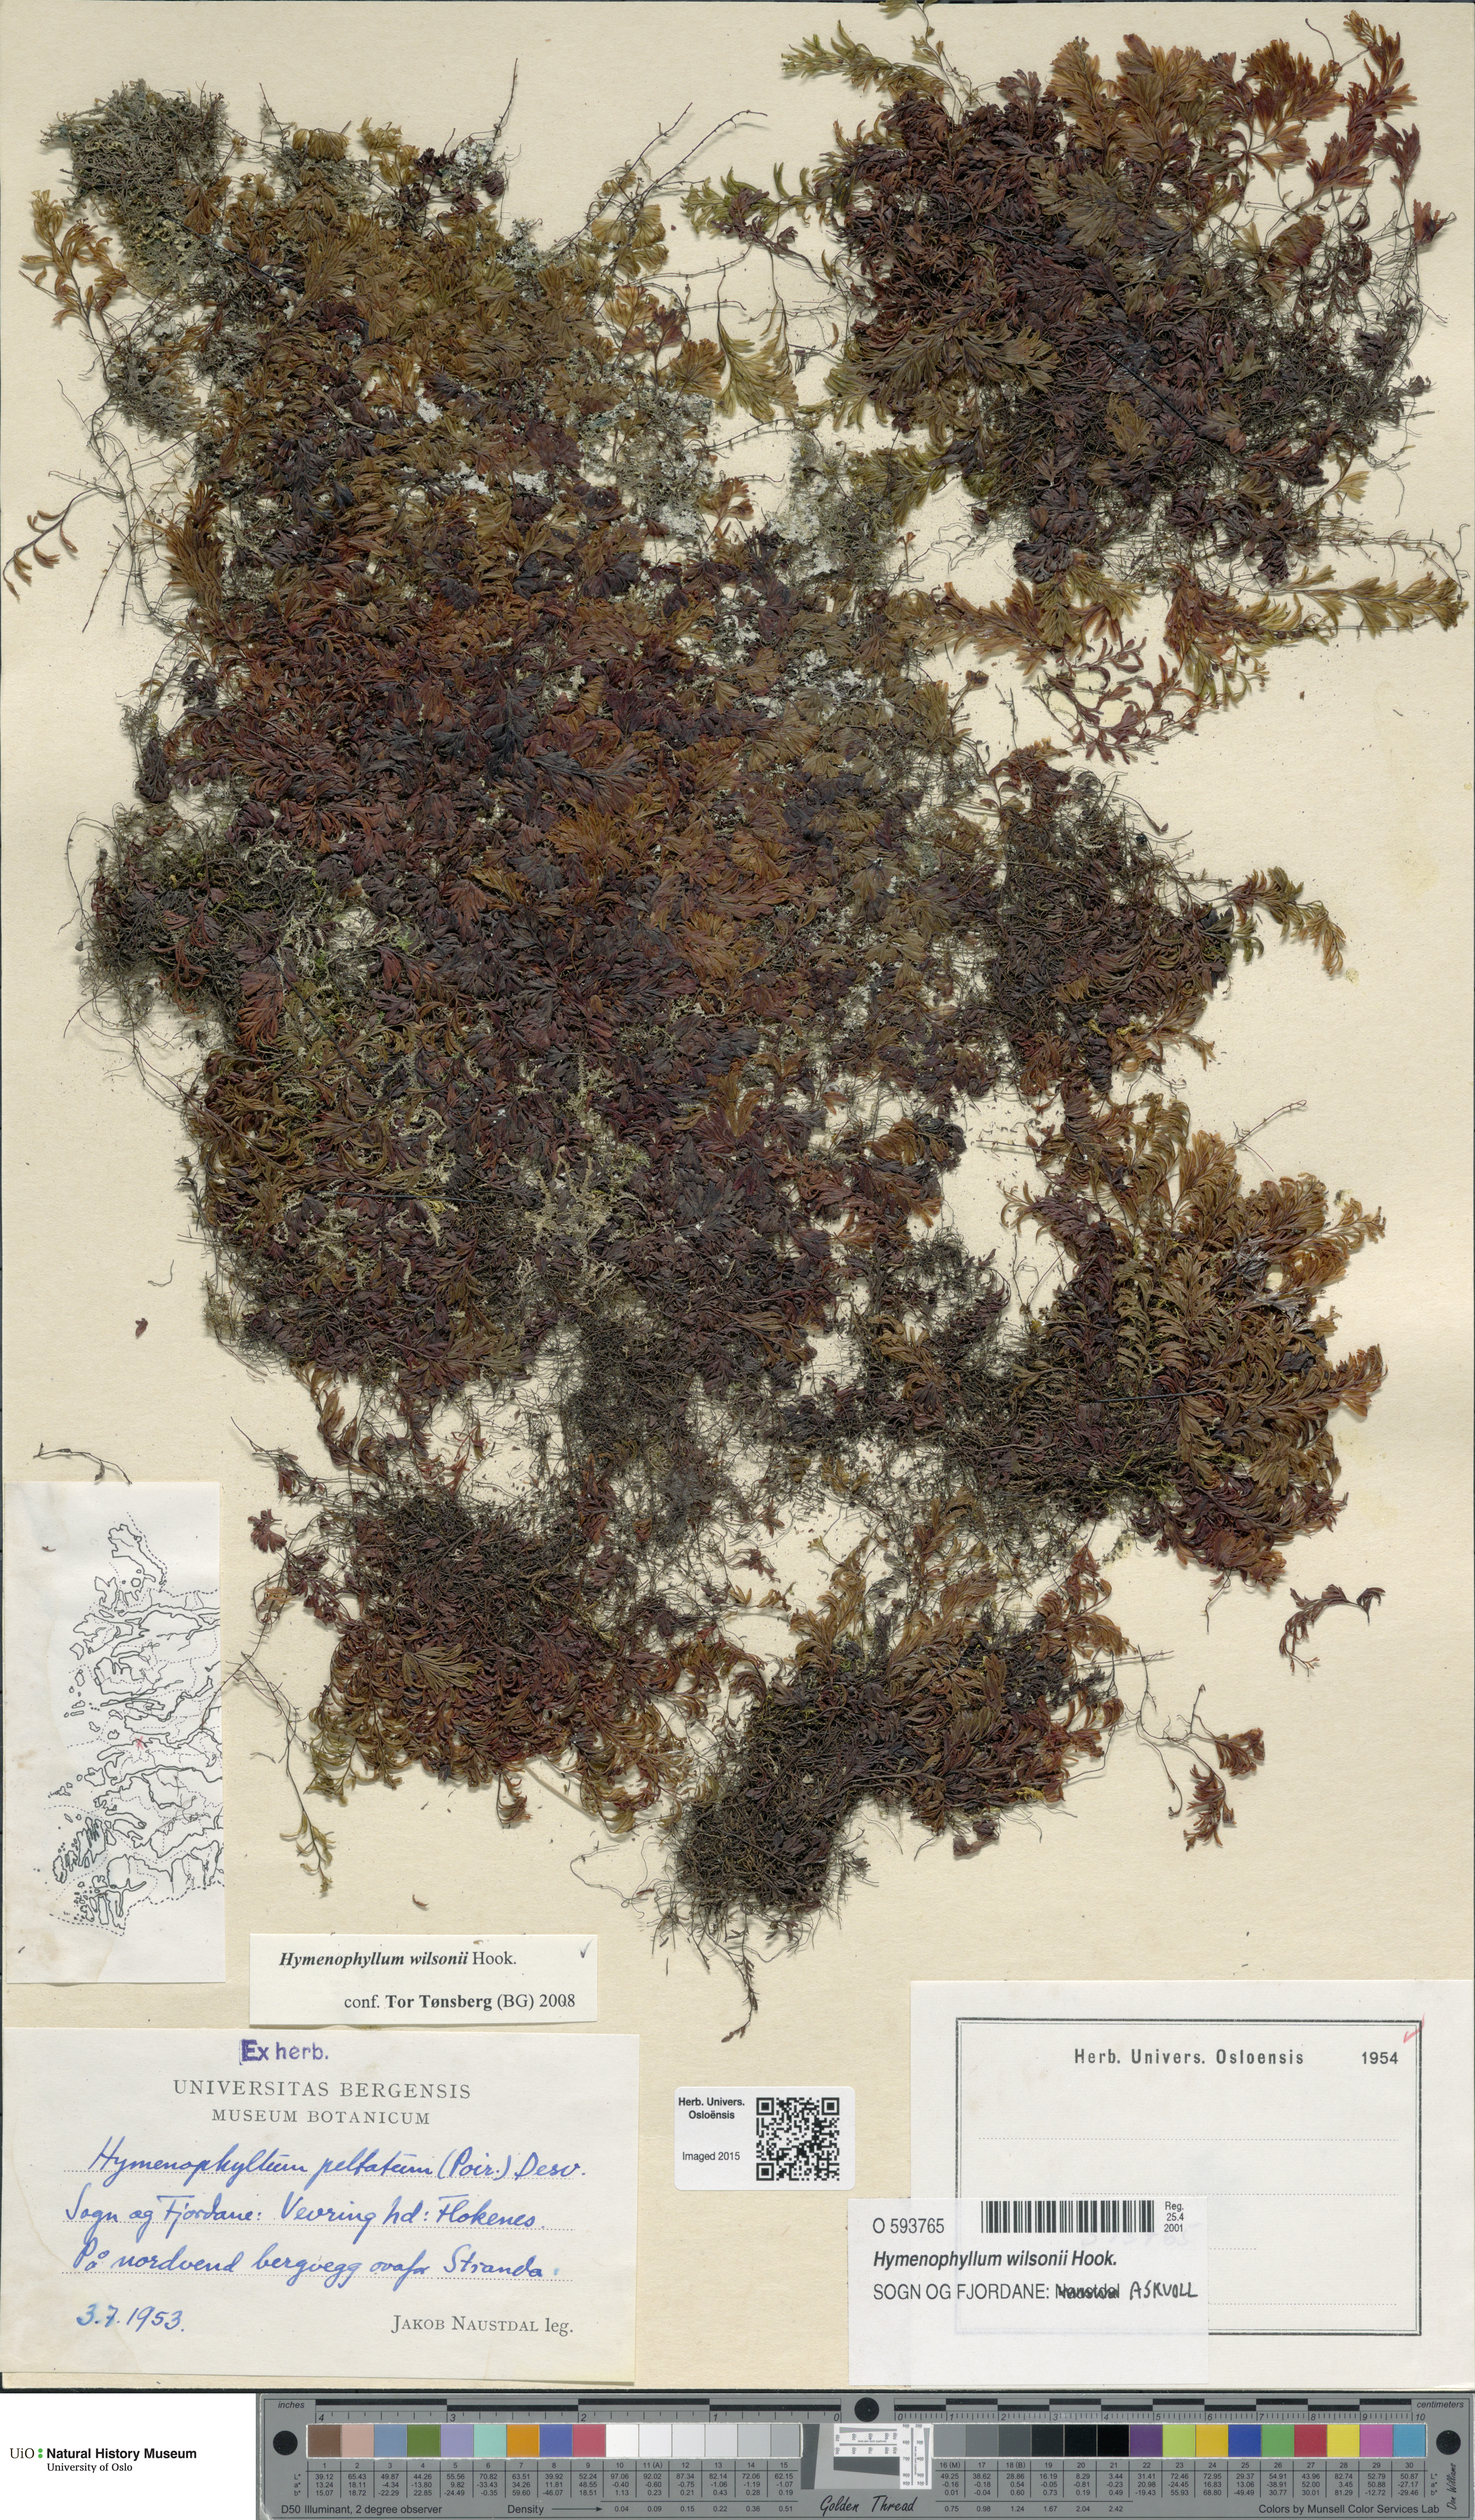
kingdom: Plantae
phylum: Tracheophyta
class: Polypodiopsida
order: Hymenophyllales
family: Hymenophyllaceae
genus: Hymenophyllum
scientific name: Hymenophyllum peltatum
